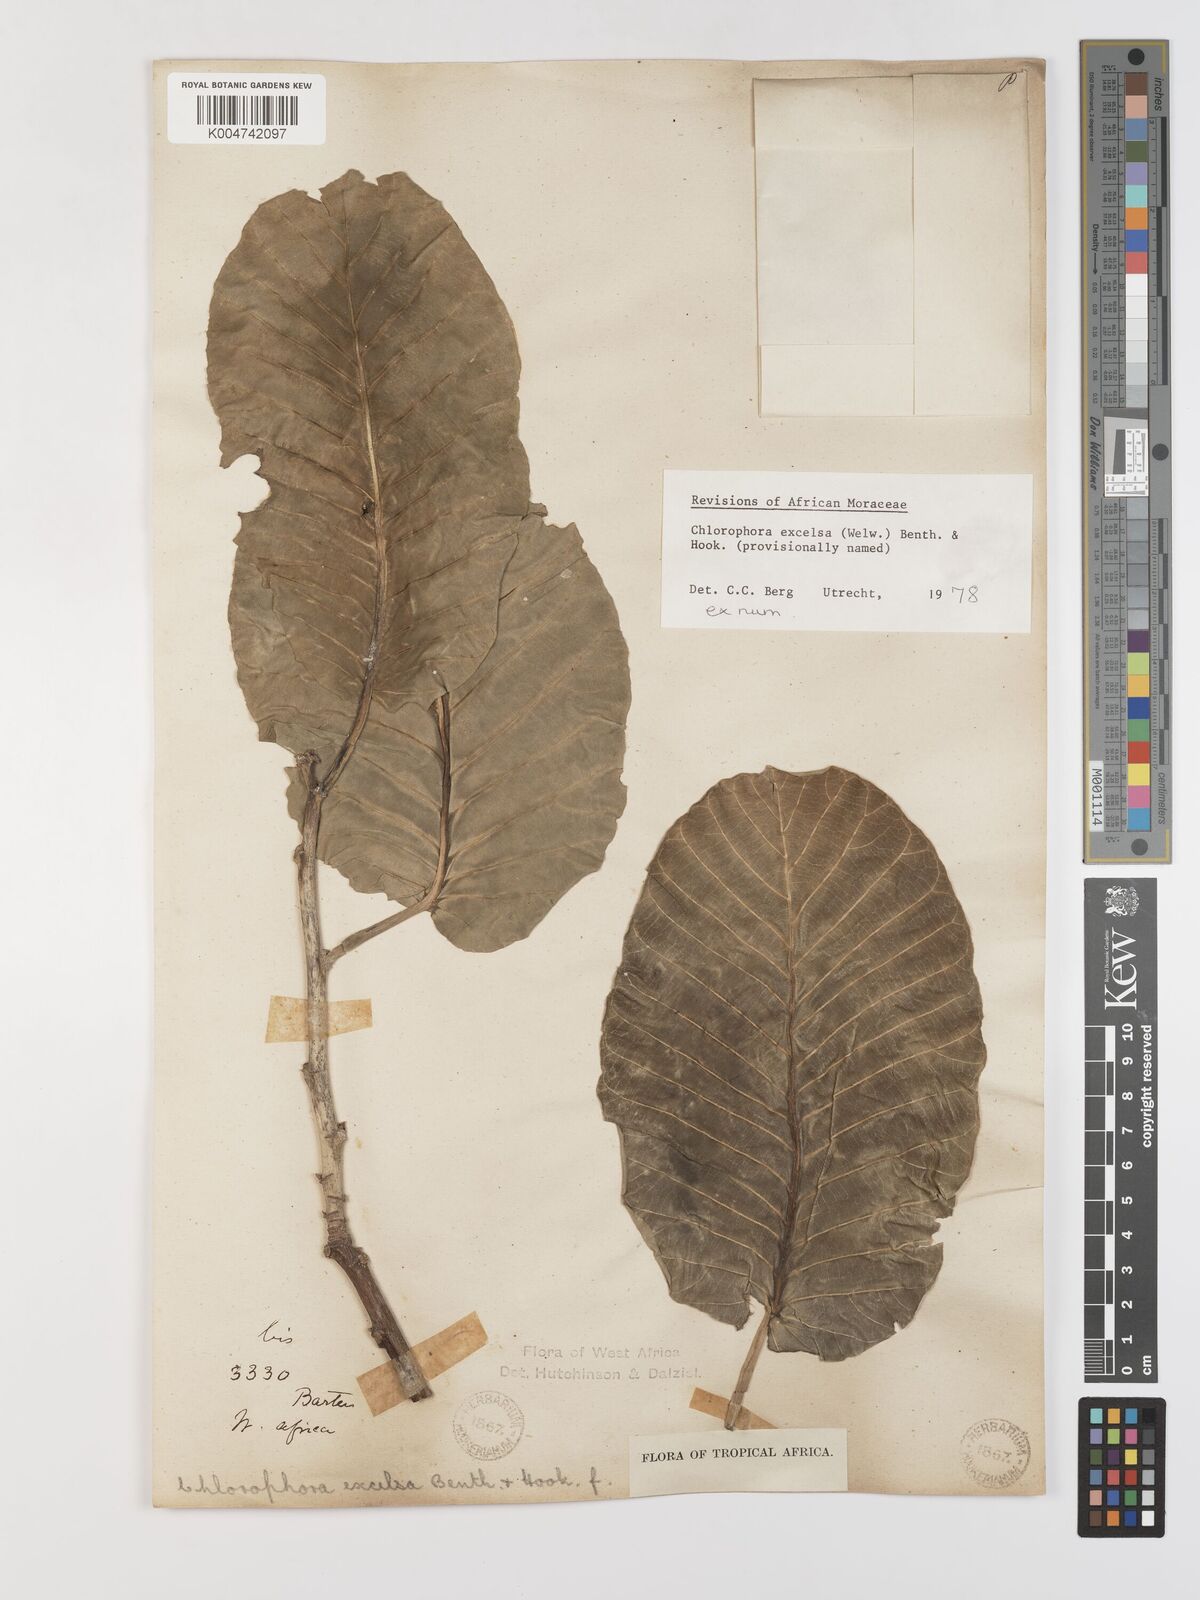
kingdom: Plantae
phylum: Tracheophyta
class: Magnoliopsida
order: Rosales
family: Moraceae
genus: Milicia
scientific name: Milicia excelsa
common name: African teak
